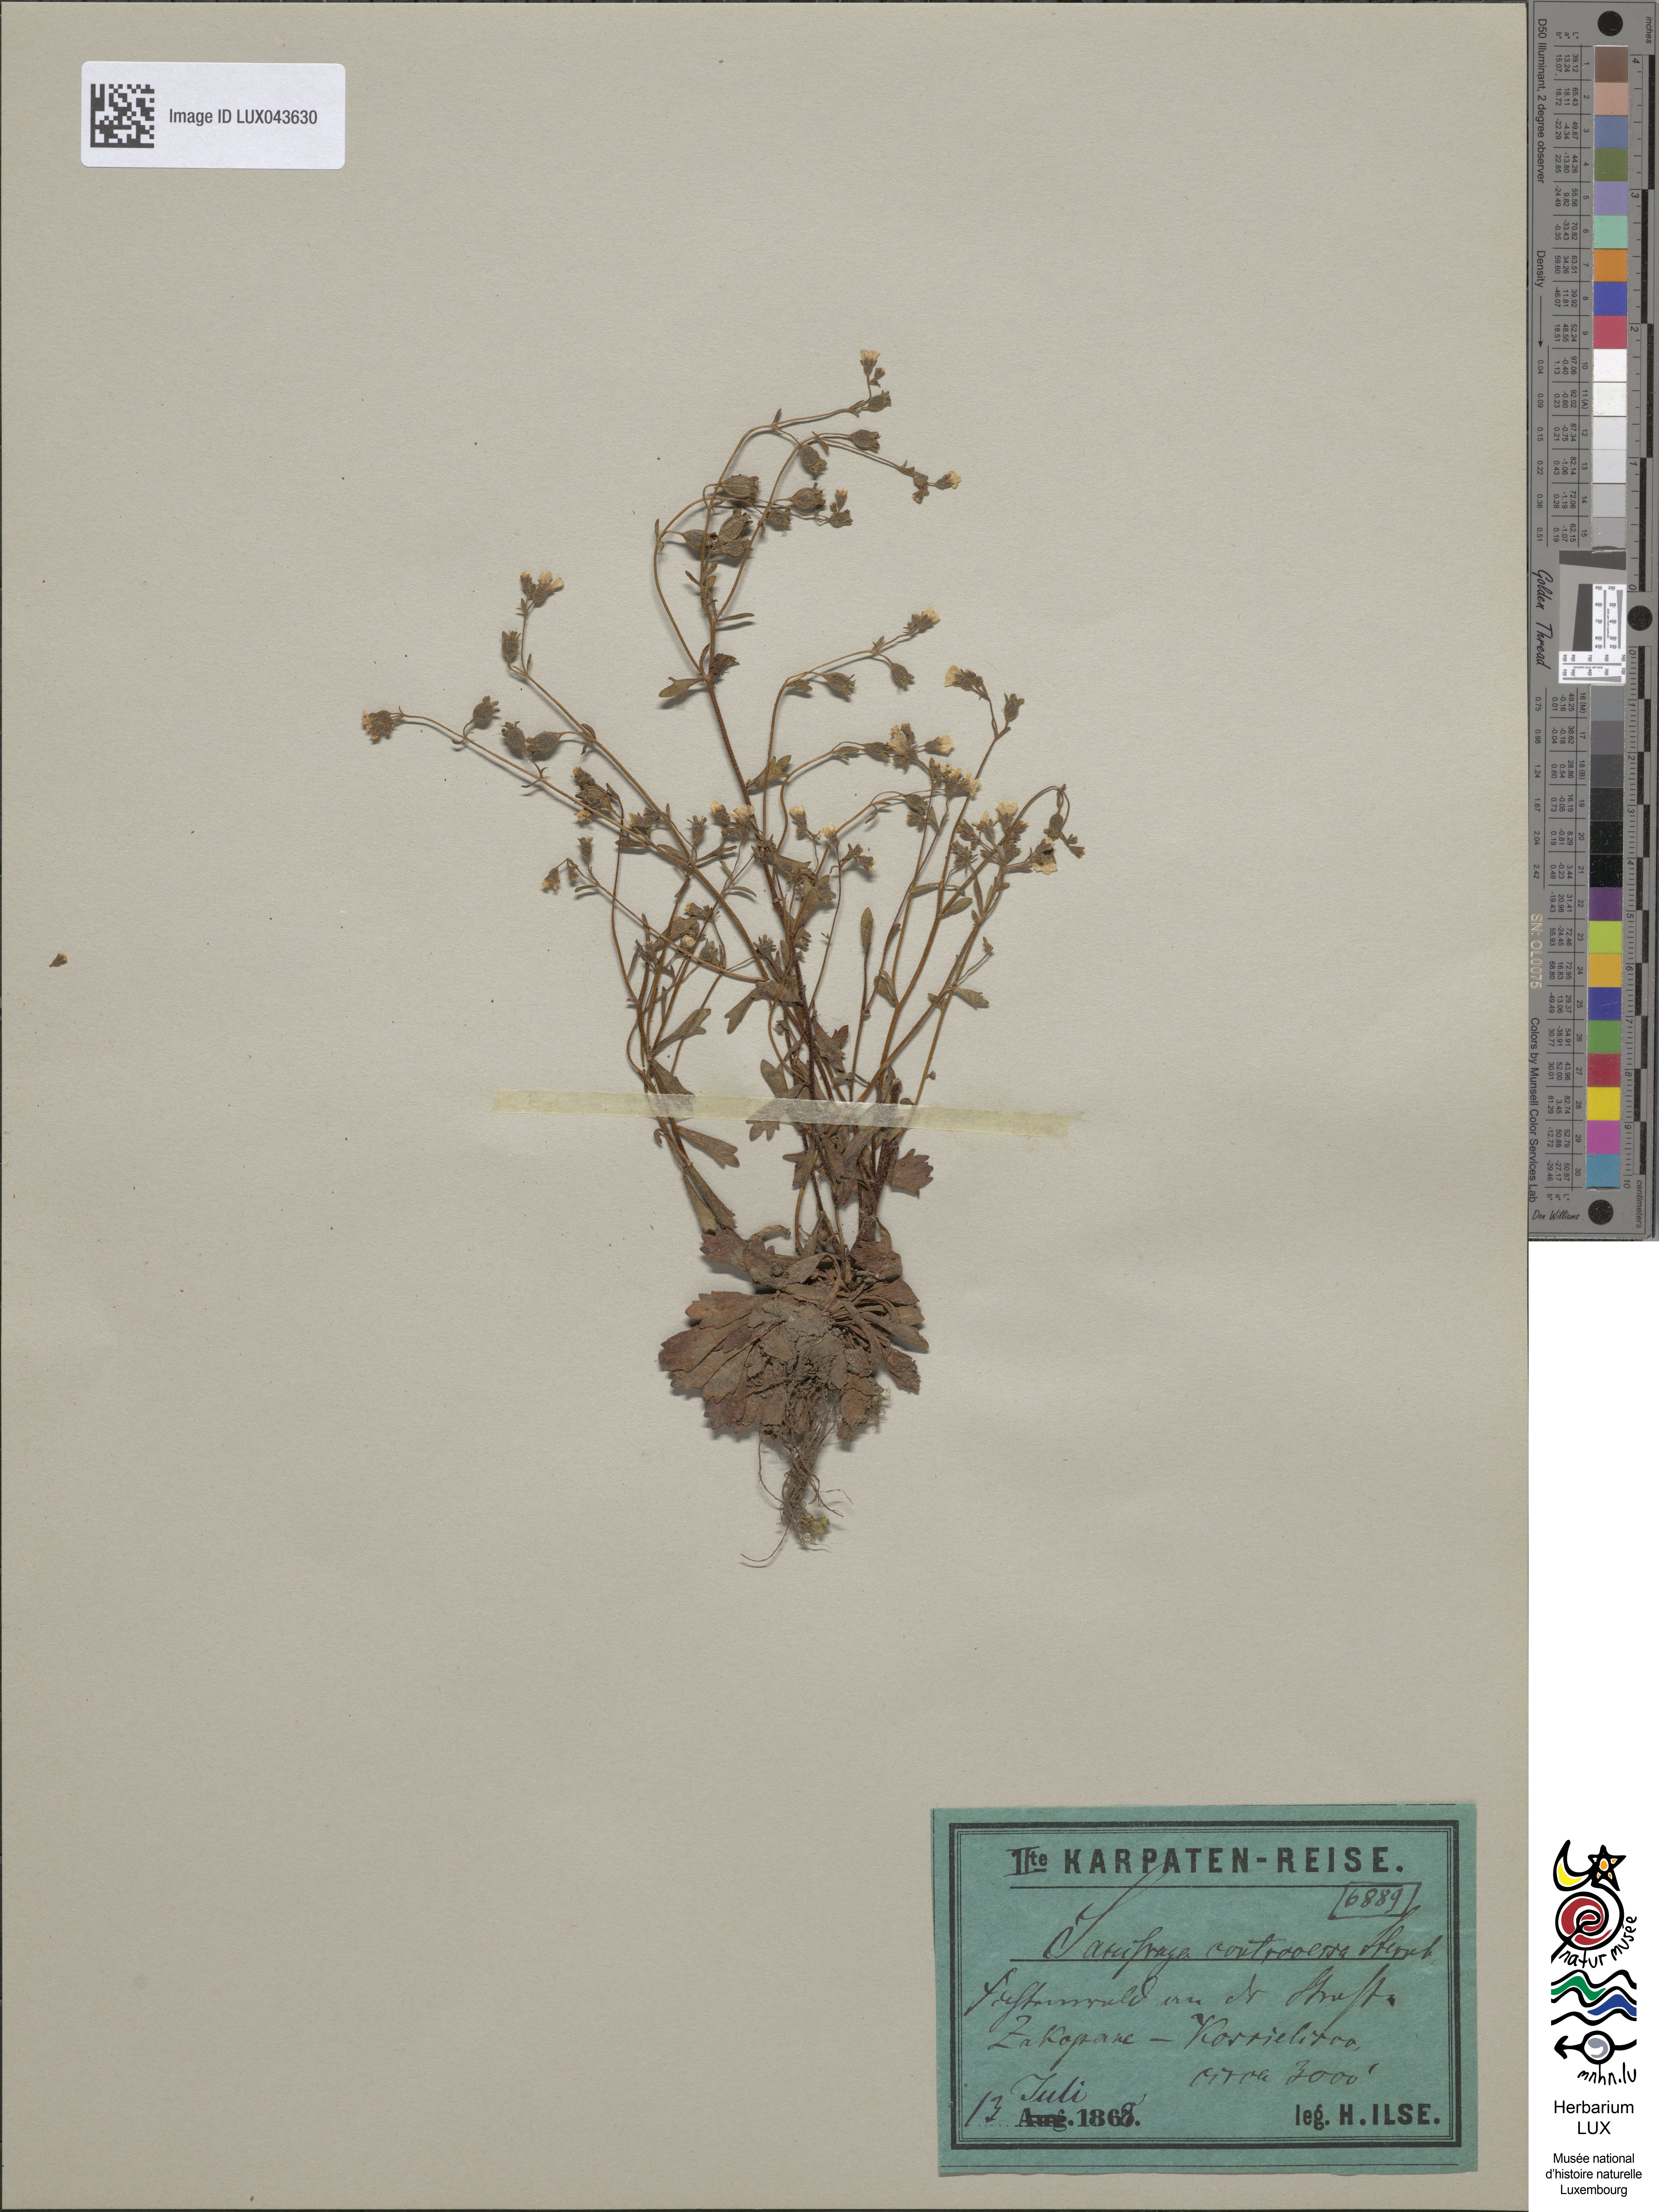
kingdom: Plantae
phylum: Tracheophyta
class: Magnoliopsida
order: Saxifragales
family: Saxifragaceae
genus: Saxifraga
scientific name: Saxifraga adscendens
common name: Ascending saxifrage
